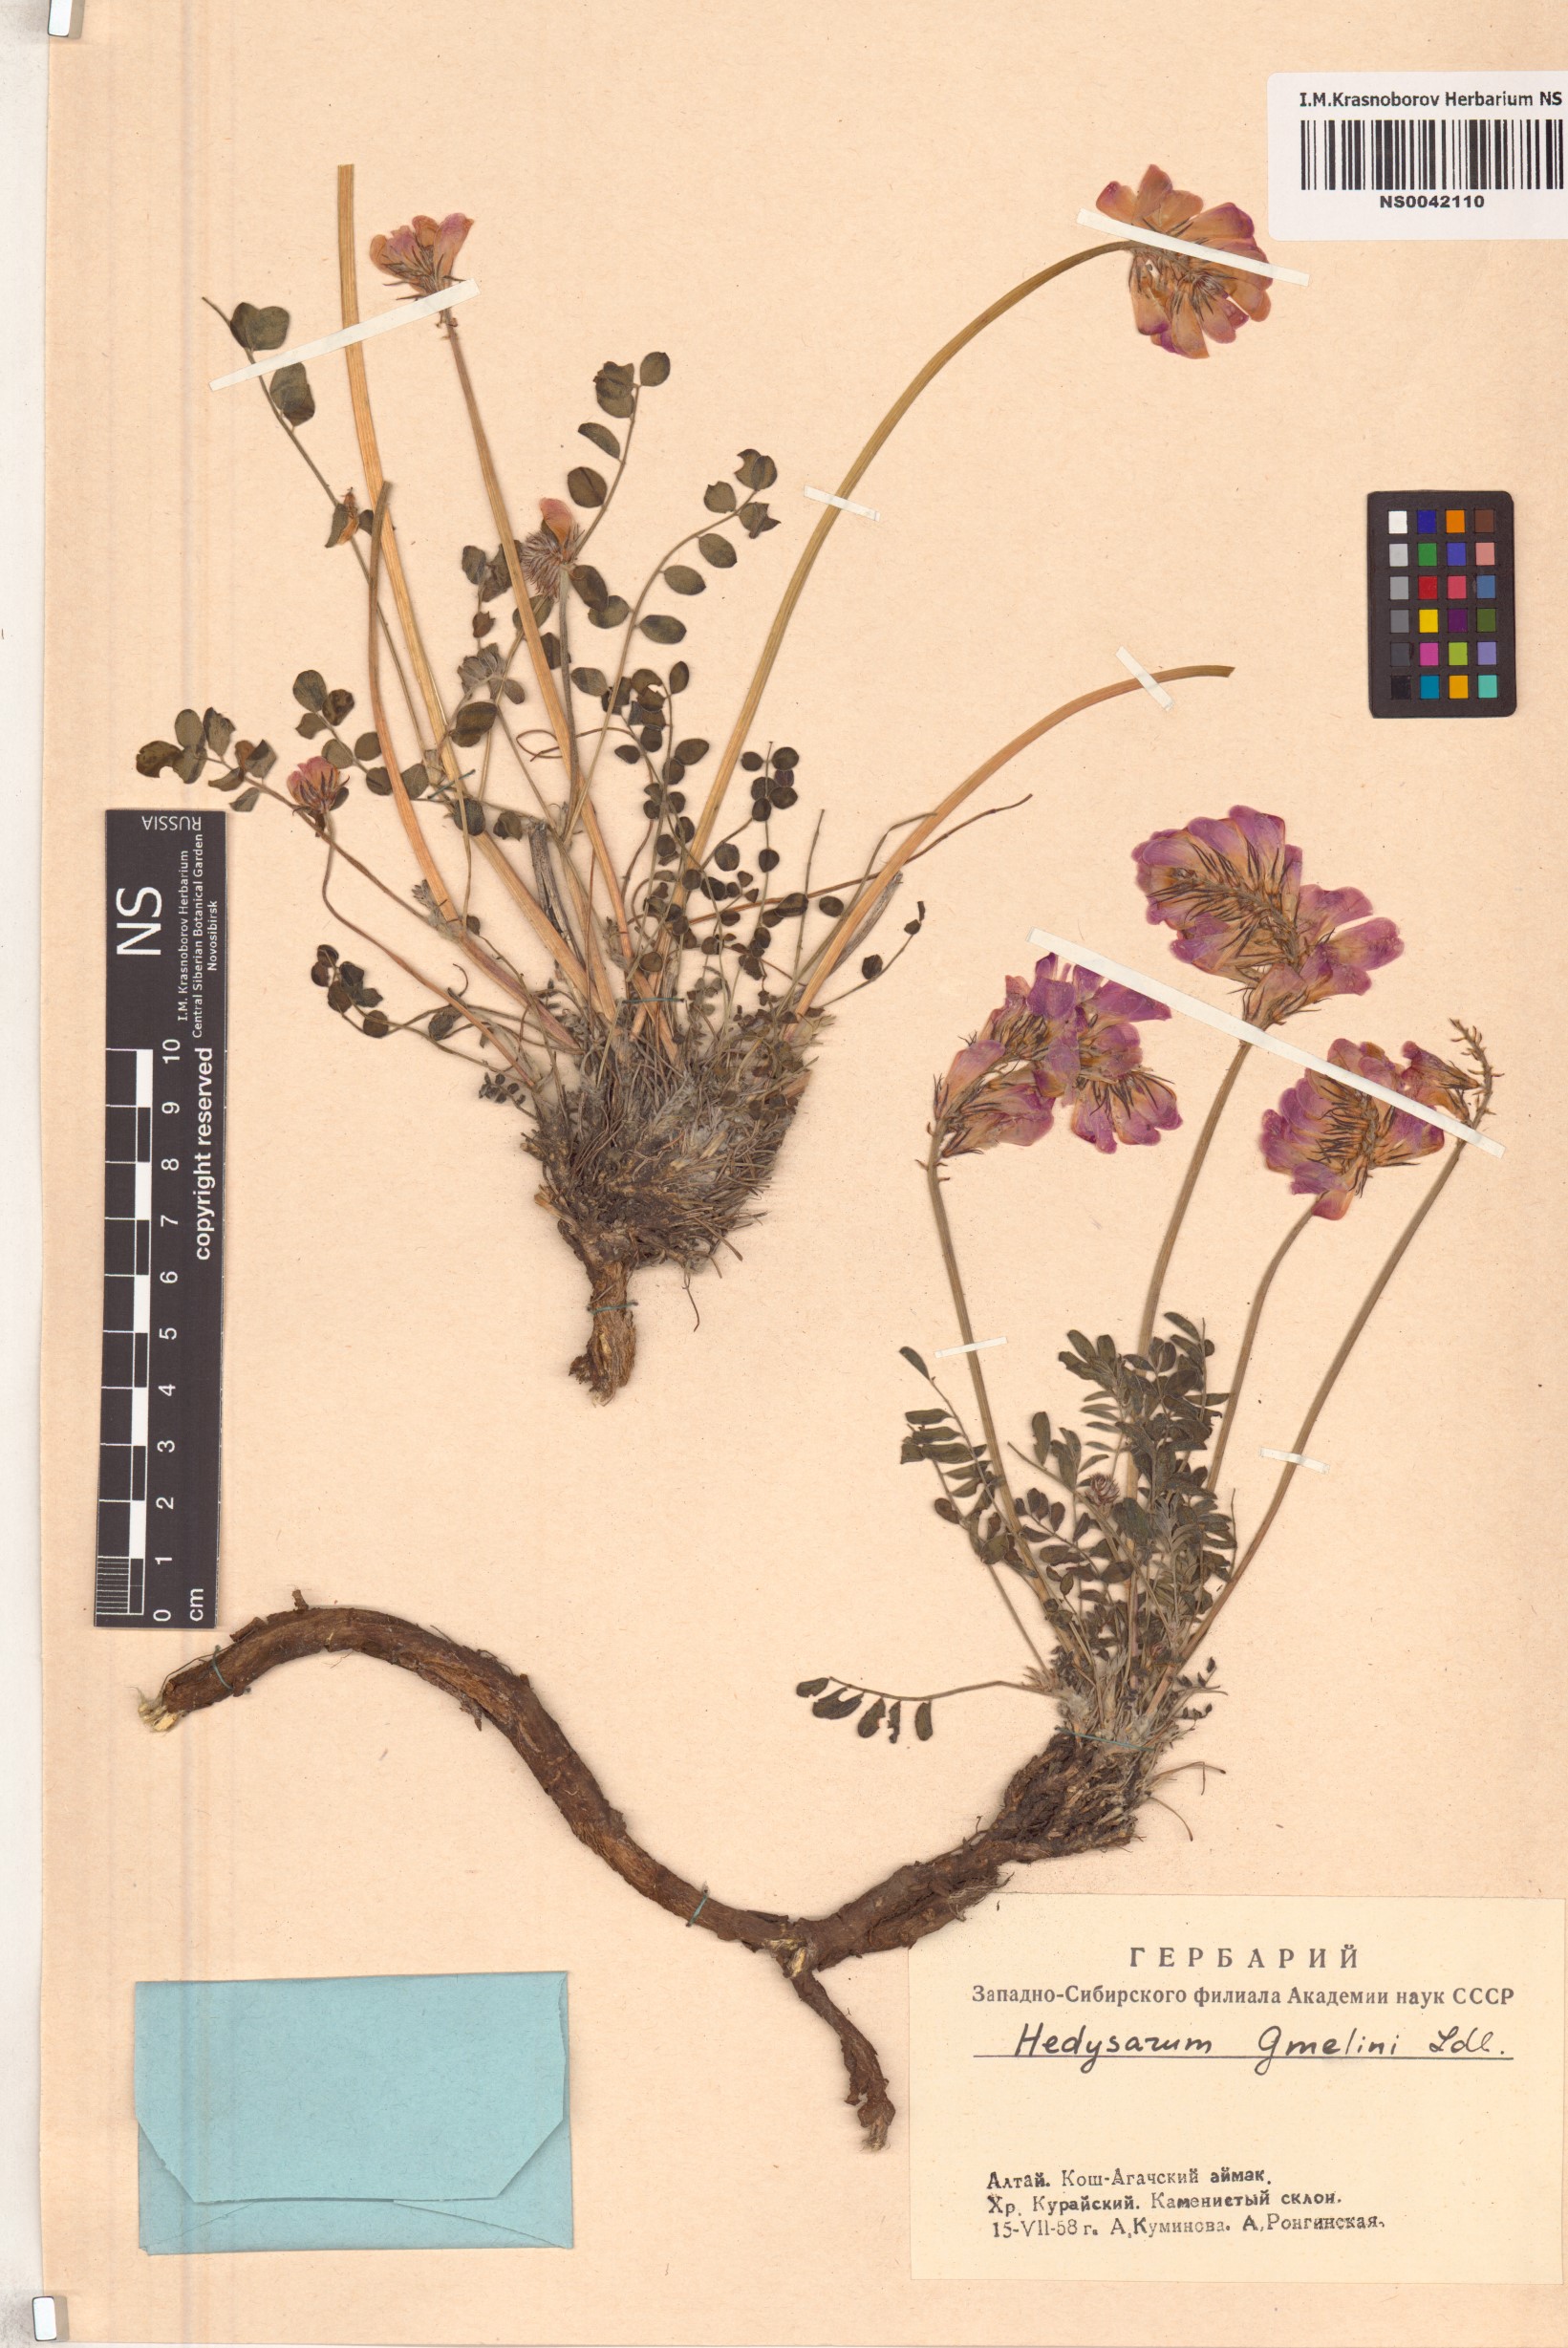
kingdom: Plantae
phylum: Tracheophyta
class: Magnoliopsida
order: Fabales
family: Fabaceae
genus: Hedysarum
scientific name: Hedysarum gmelinii
